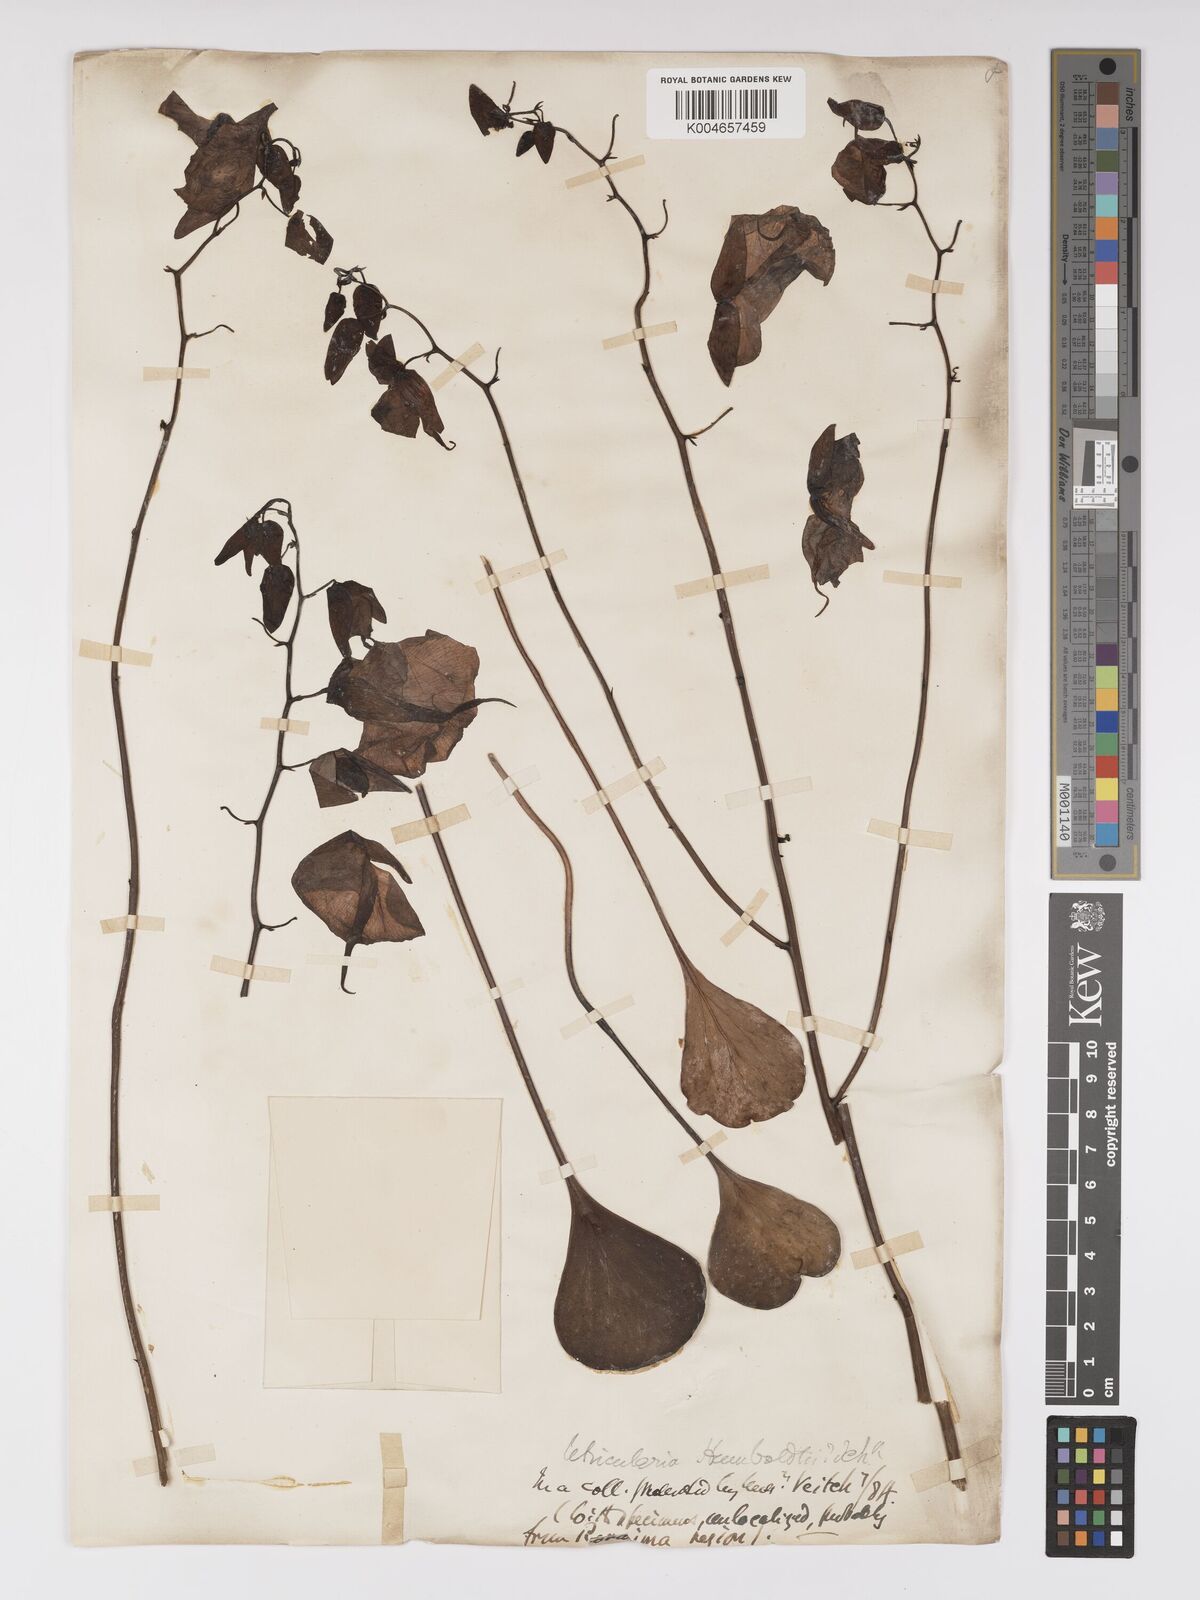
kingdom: Plantae
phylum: Tracheophyta
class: Magnoliopsida
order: Lamiales
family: Lentibulariaceae
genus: Utricularia
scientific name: Utricularia humboldtii
